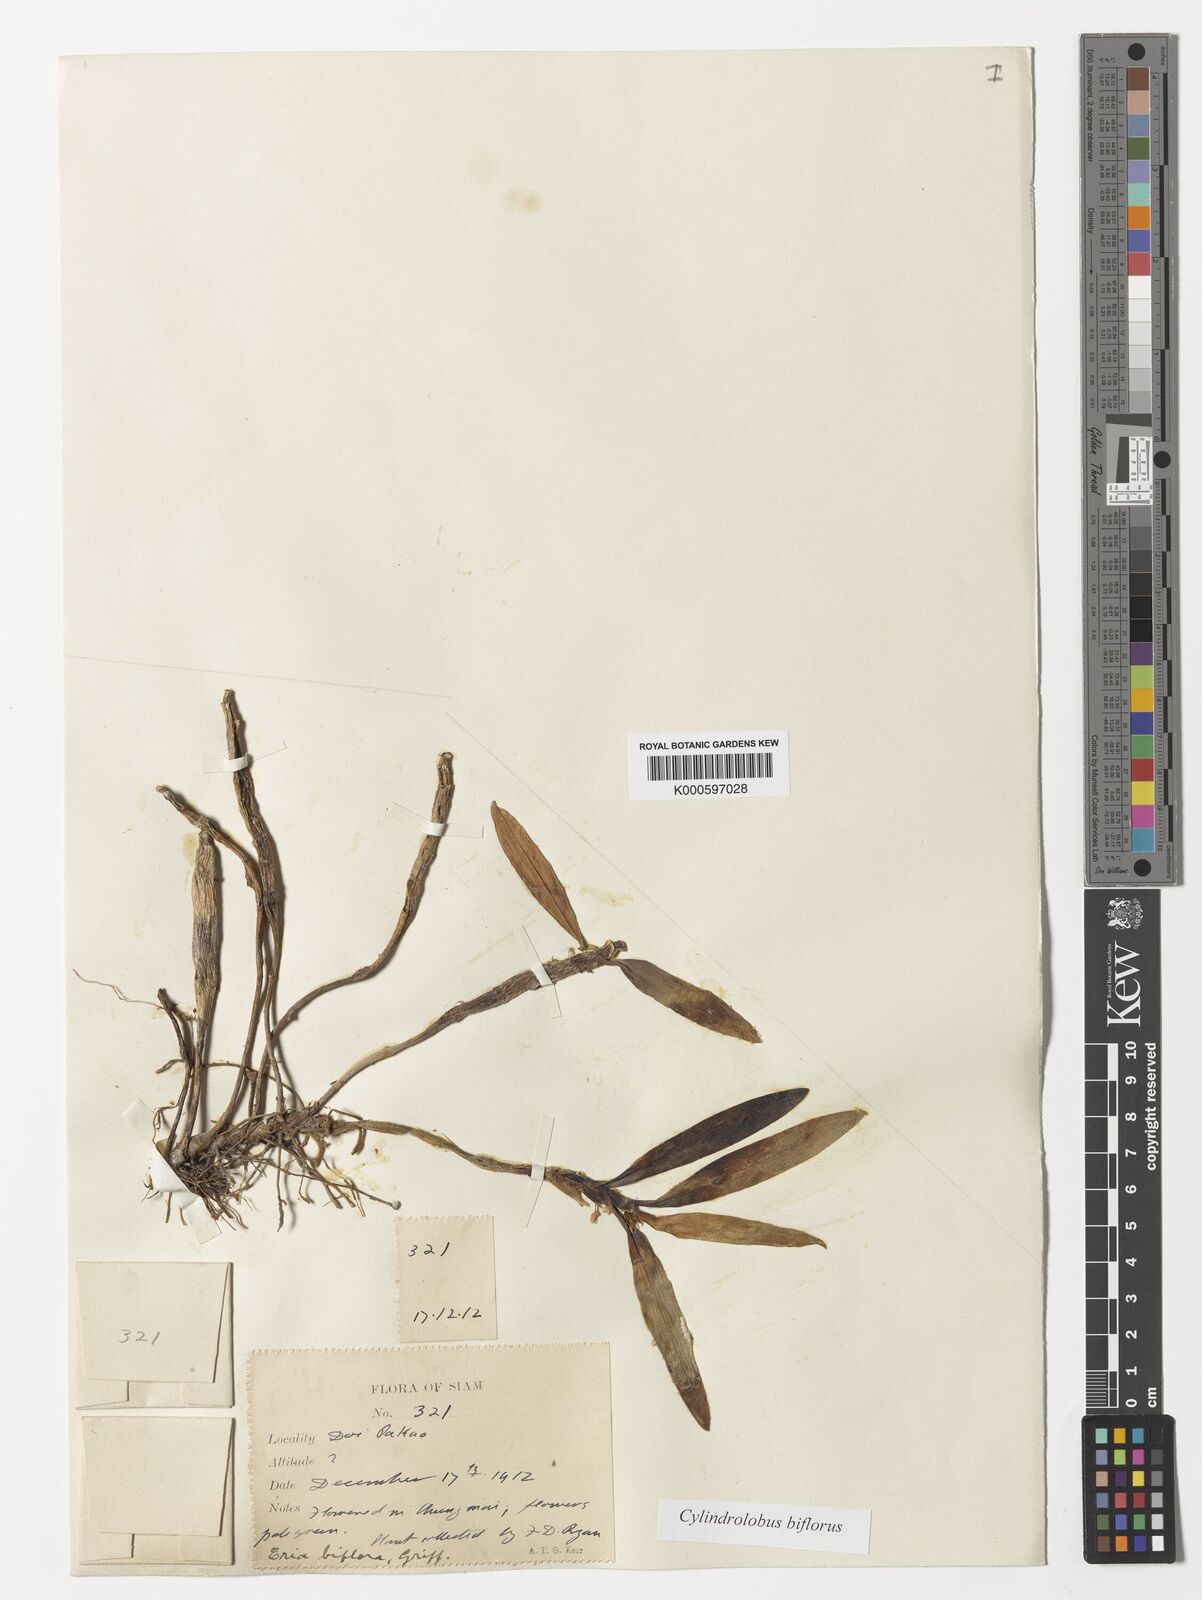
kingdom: Plantae
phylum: Tracheophyta
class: Liliopsida
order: Asparagales
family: Orchidaceae
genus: Cylindrolobus
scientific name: Cylindrolobus biflorus
